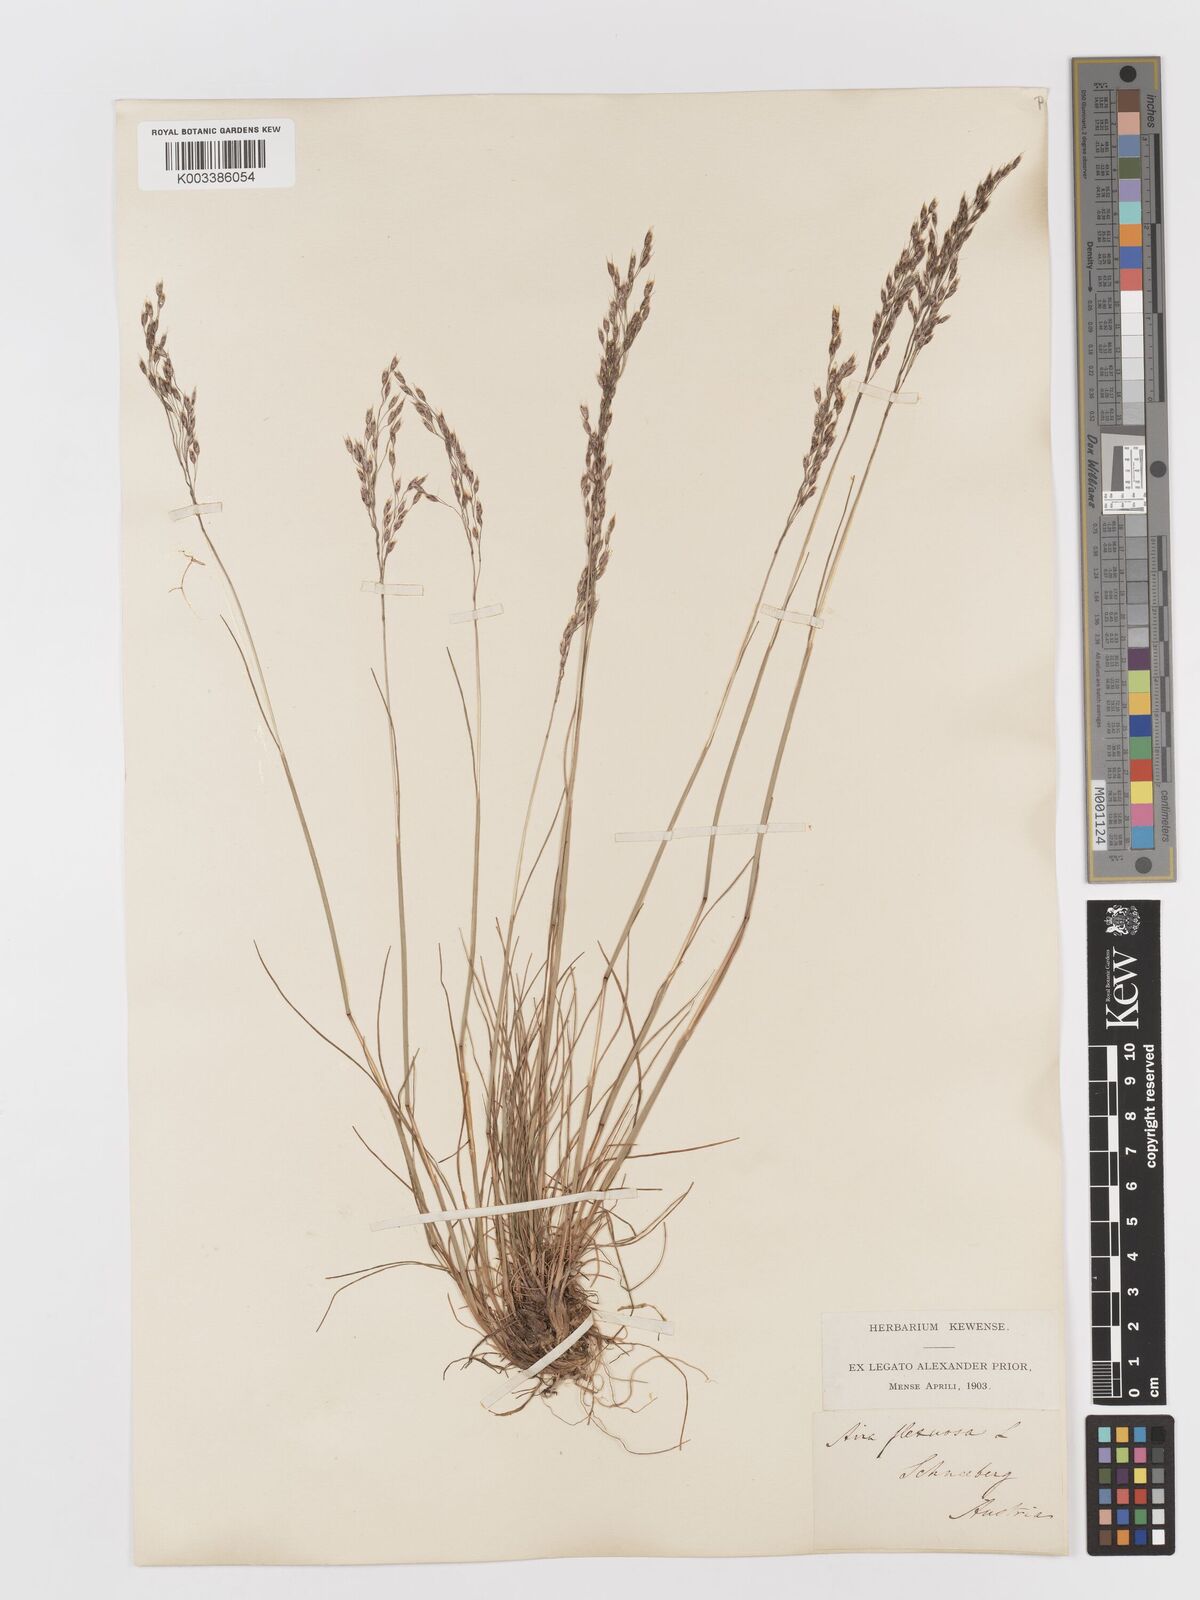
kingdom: Plantae
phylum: Tracheophyta
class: Liliopsida
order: Poales
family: Poaceae
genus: Avenella
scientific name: Avenella flexuosa
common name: Wavy hairgrass
